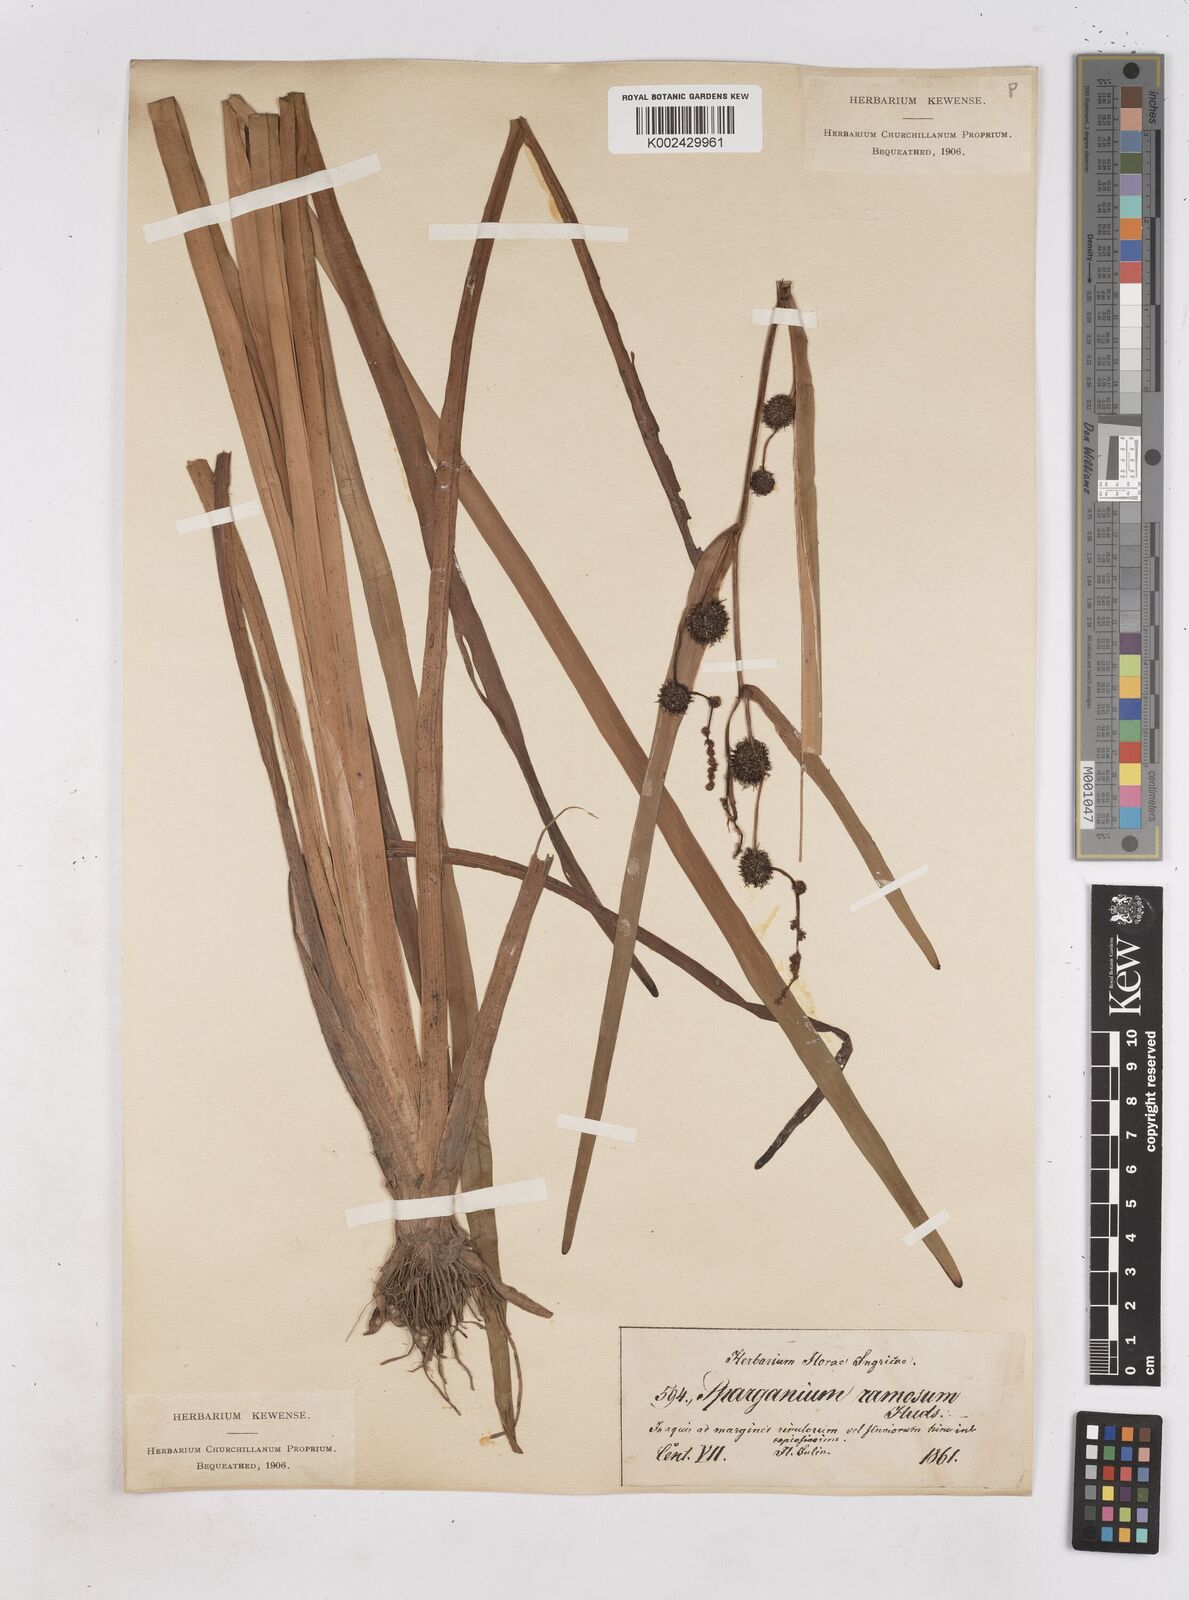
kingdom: Plantae
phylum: Tracheophyta
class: Liliopsida
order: Poales
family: Typhaceae
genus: Sparganium
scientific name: Sparganium erectum
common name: Branched bur-reed
